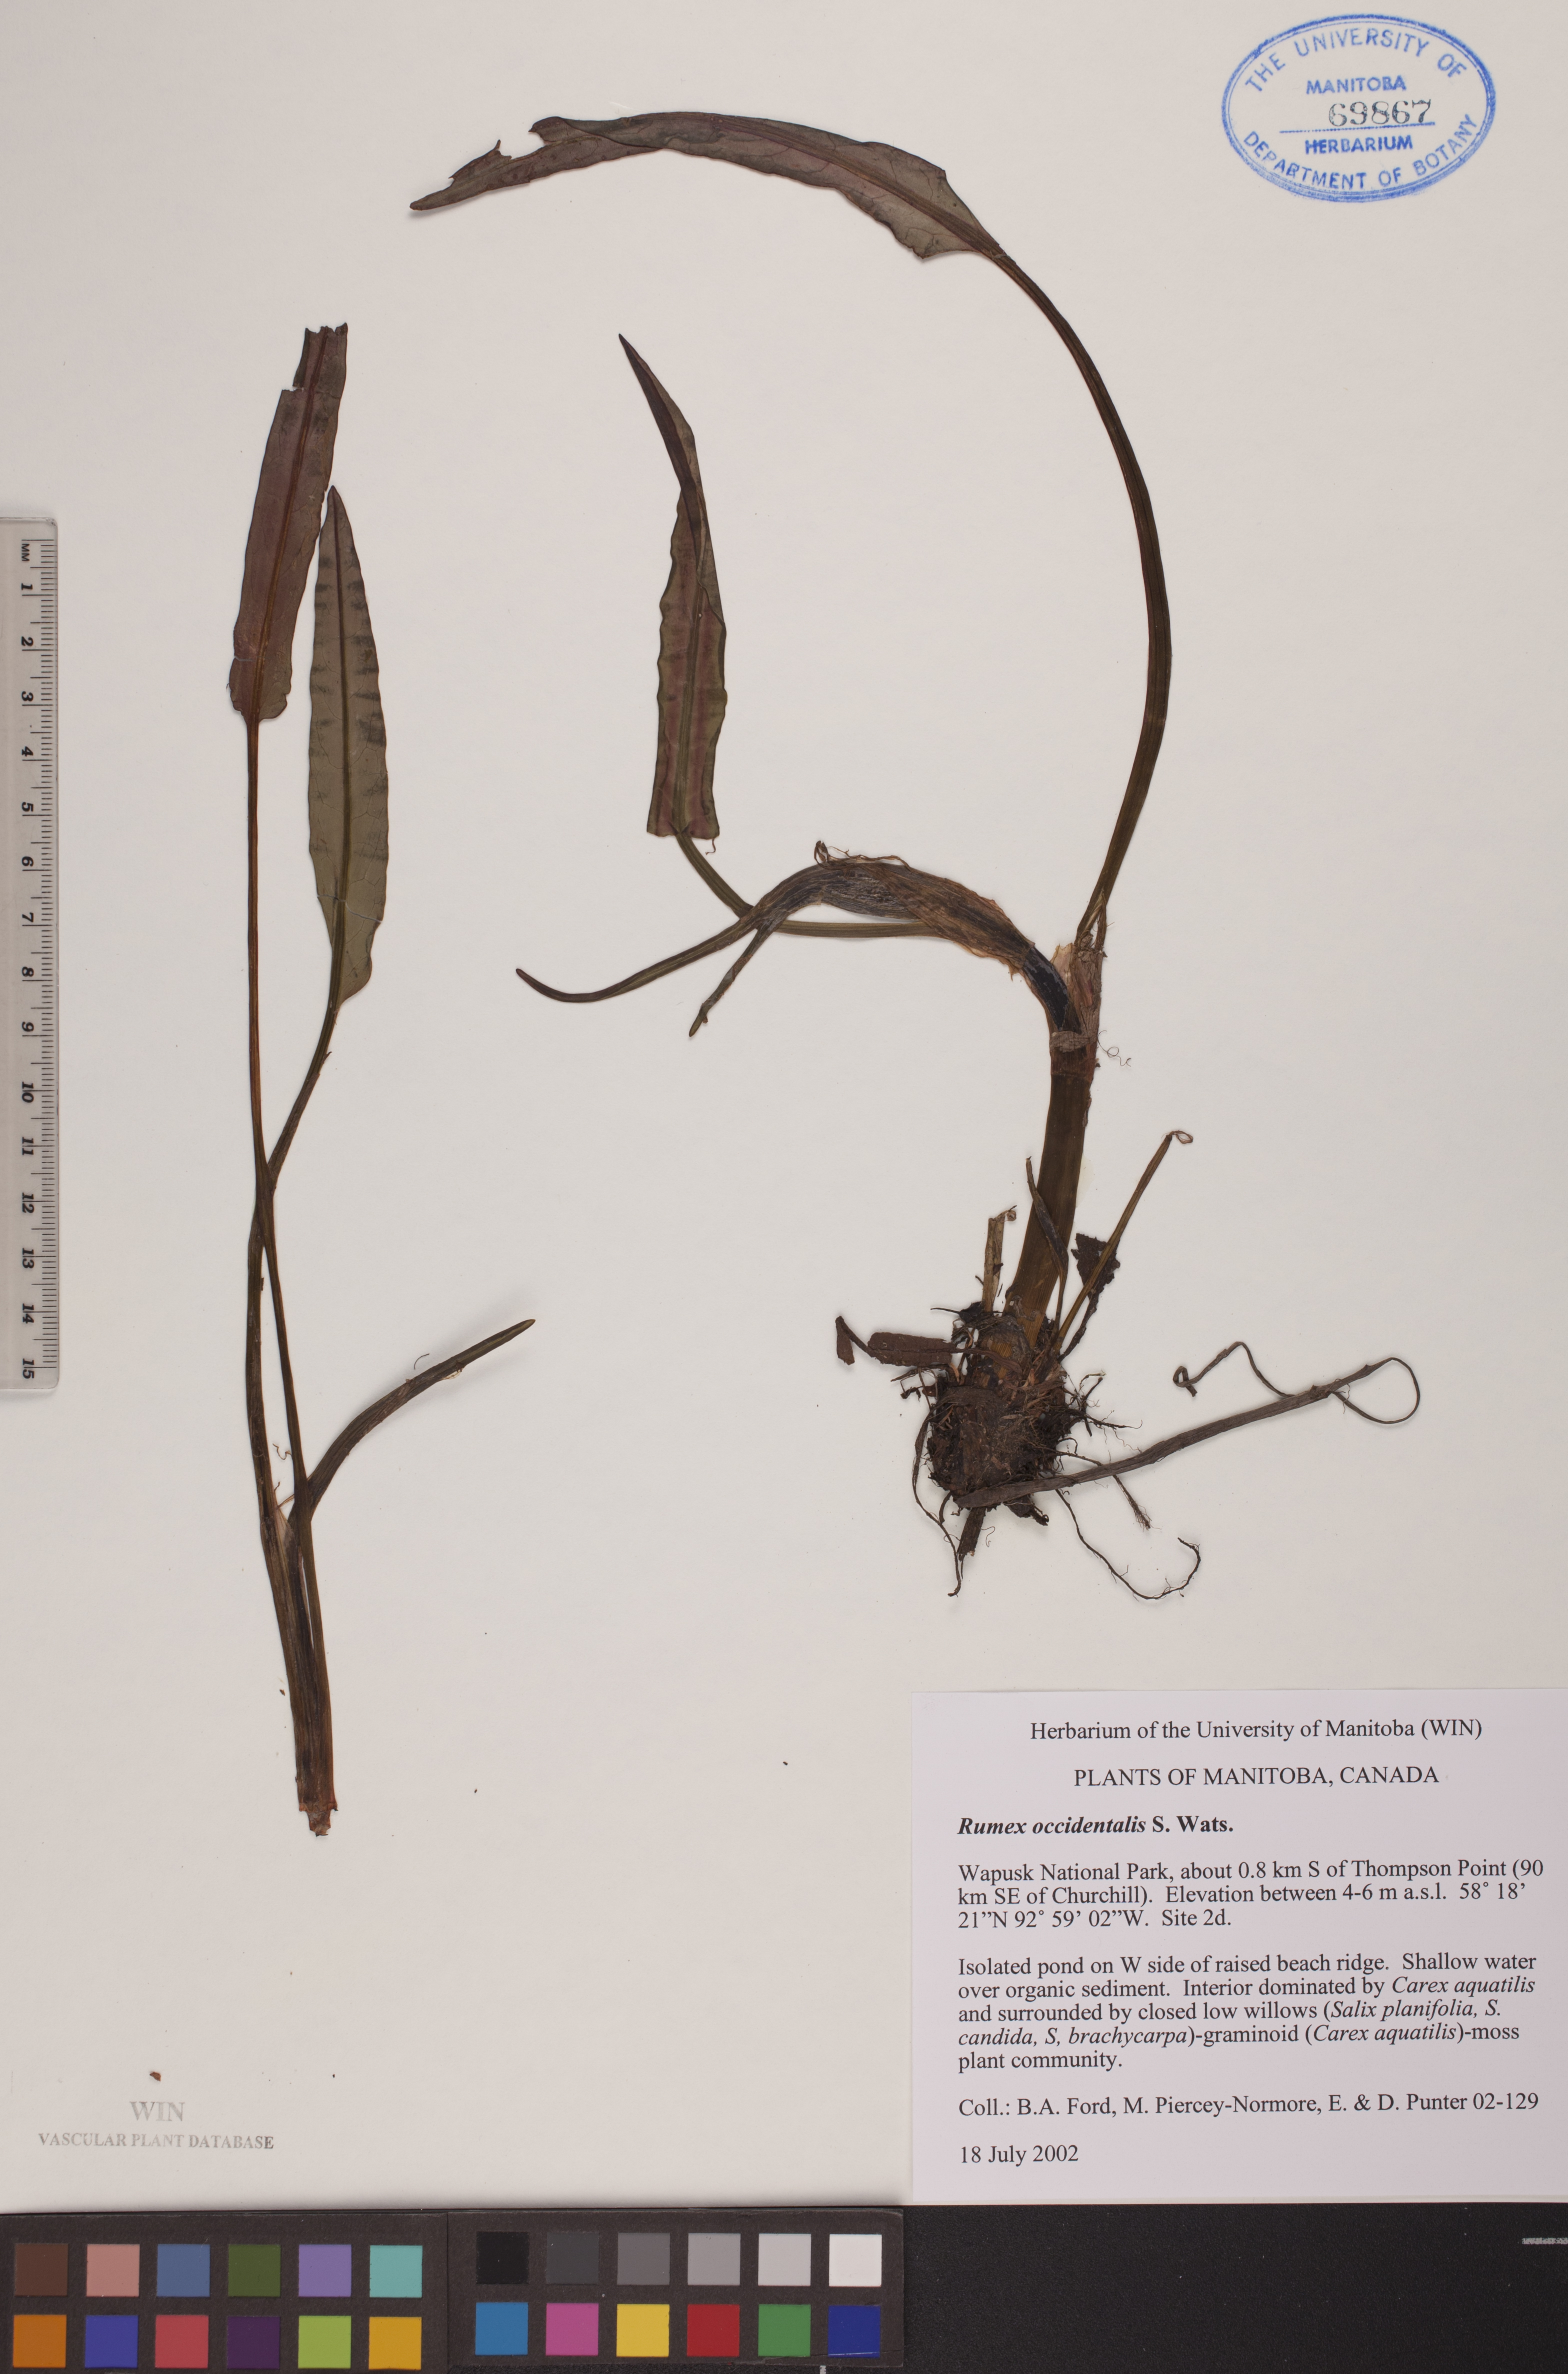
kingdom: Plantae
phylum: Tracheophyta
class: Magnoliopsida
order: Caryophyllales
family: Polygonaceae
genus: Rumex
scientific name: Rumex occidentalis
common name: Western dock
